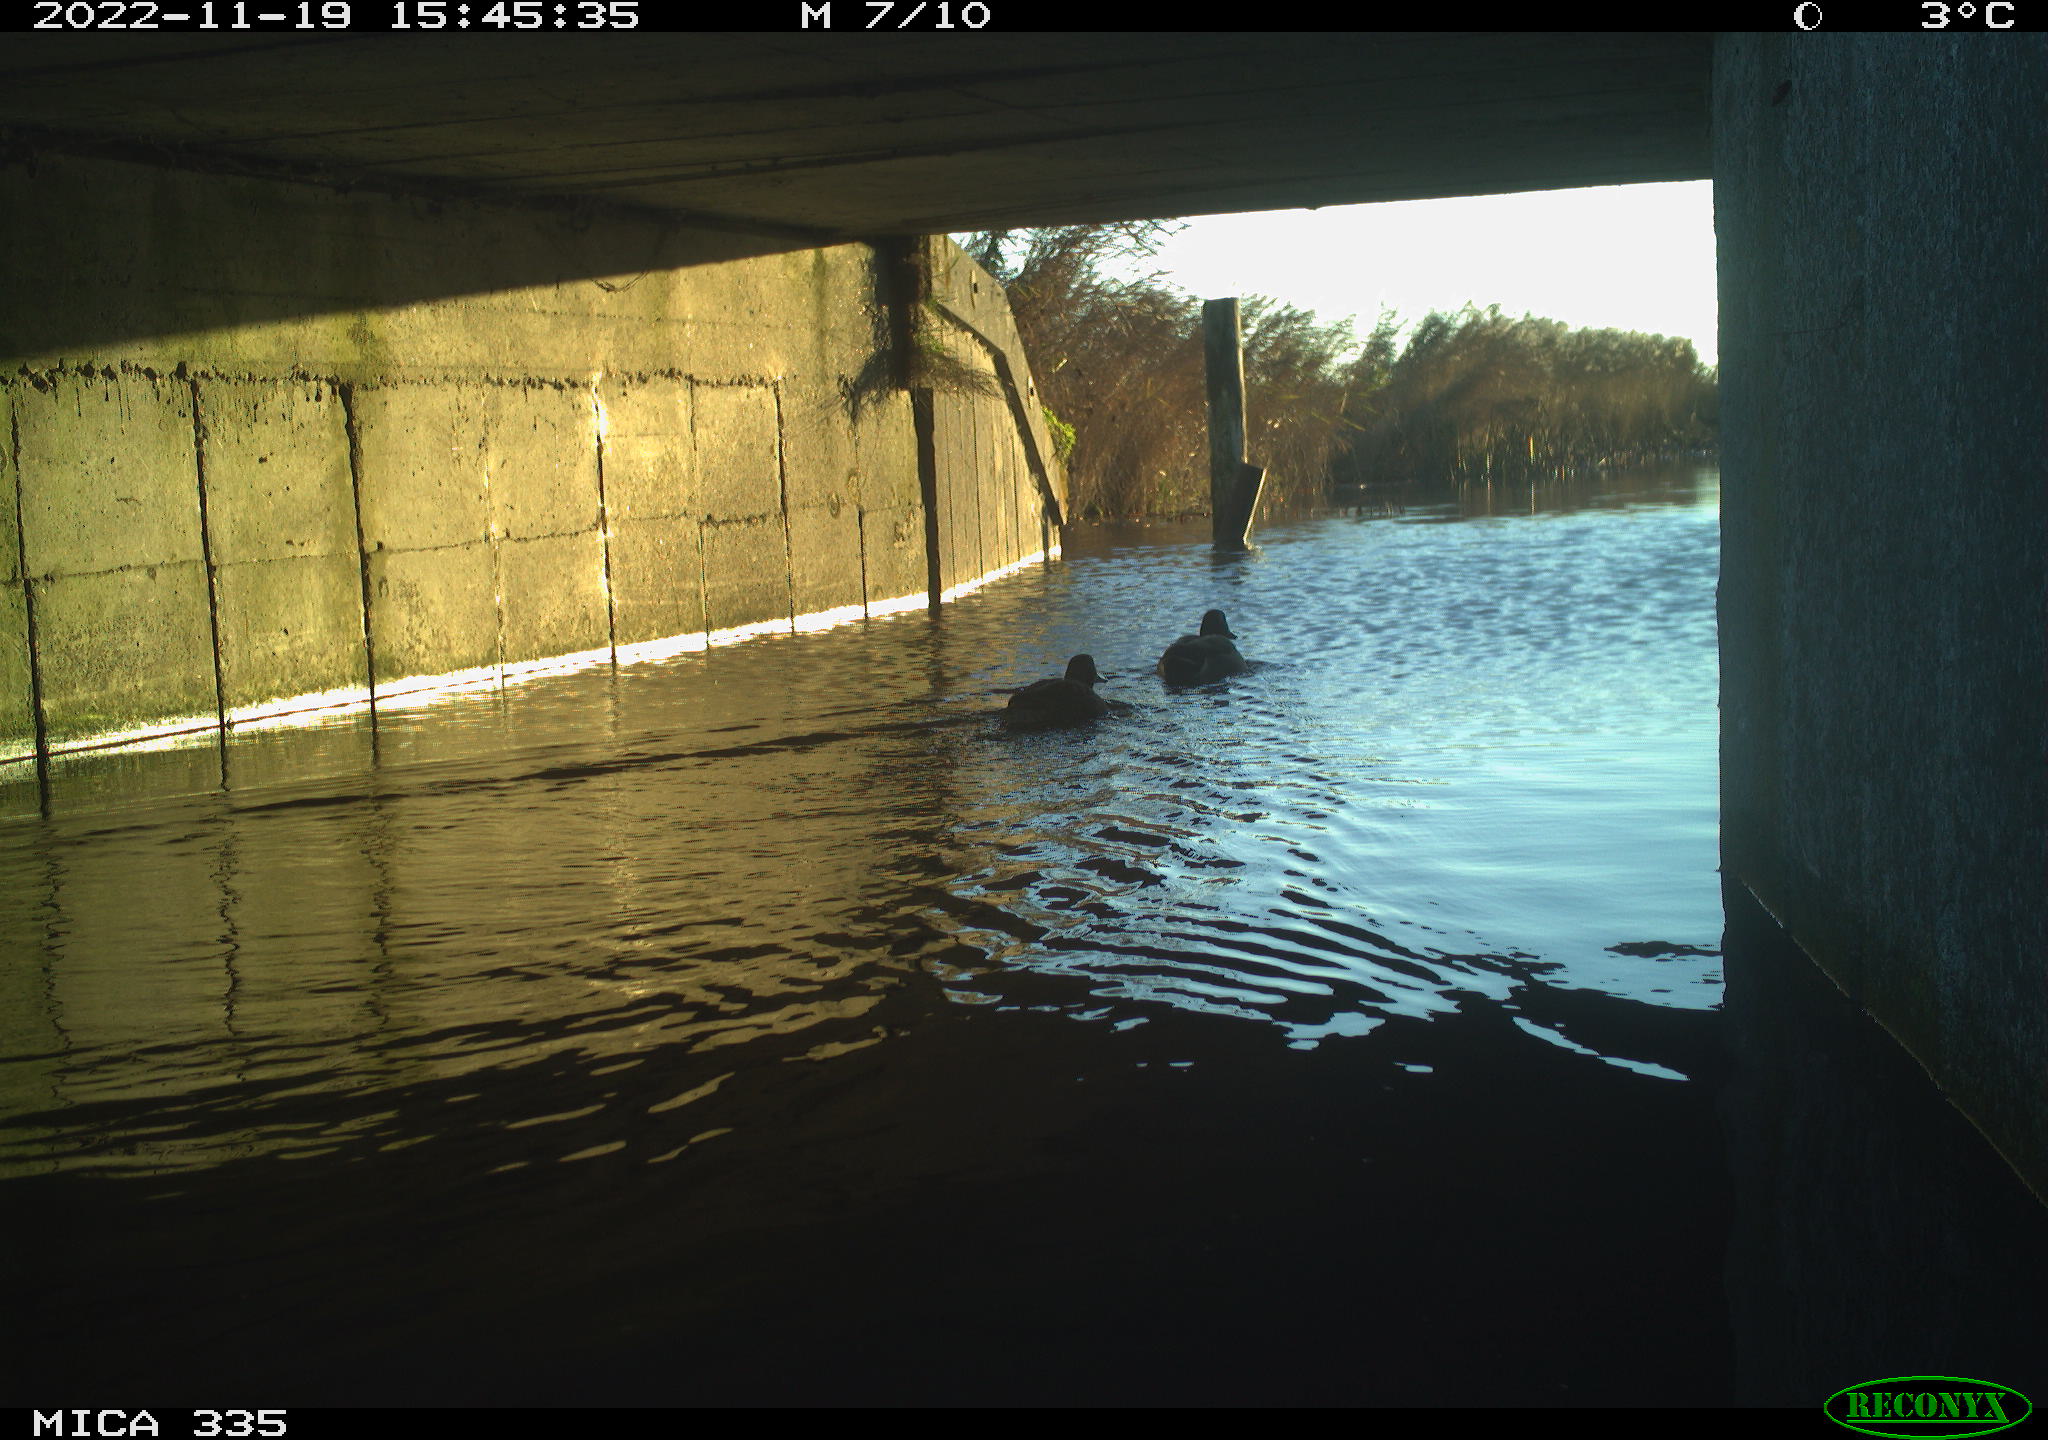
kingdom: Animalia
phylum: Chordata
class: Aves
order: Anseriformes
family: Anatidae
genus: Anas
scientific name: Anas
